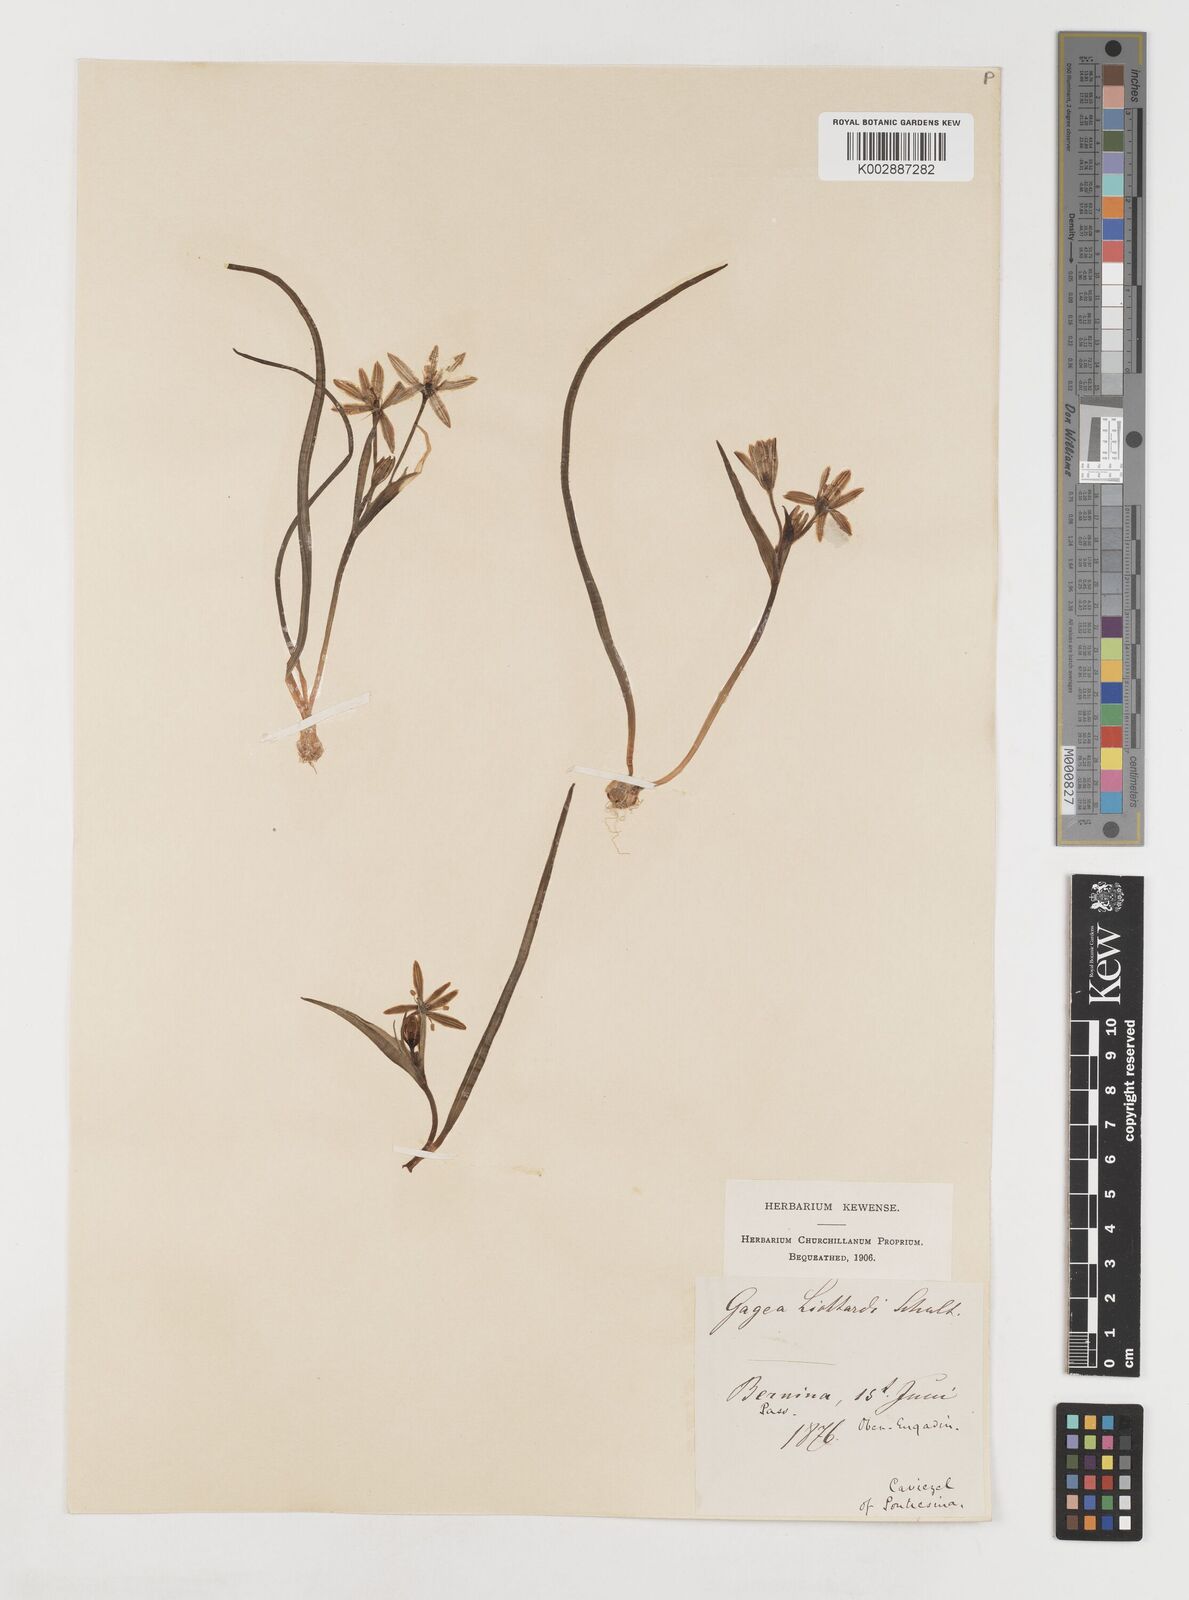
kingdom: Plantae
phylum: Tracheophyta
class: Liliopsida
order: Liliales
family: Liliaceae
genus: Gagea
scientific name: Gagea bohemica
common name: Early star-of-bethlehem
